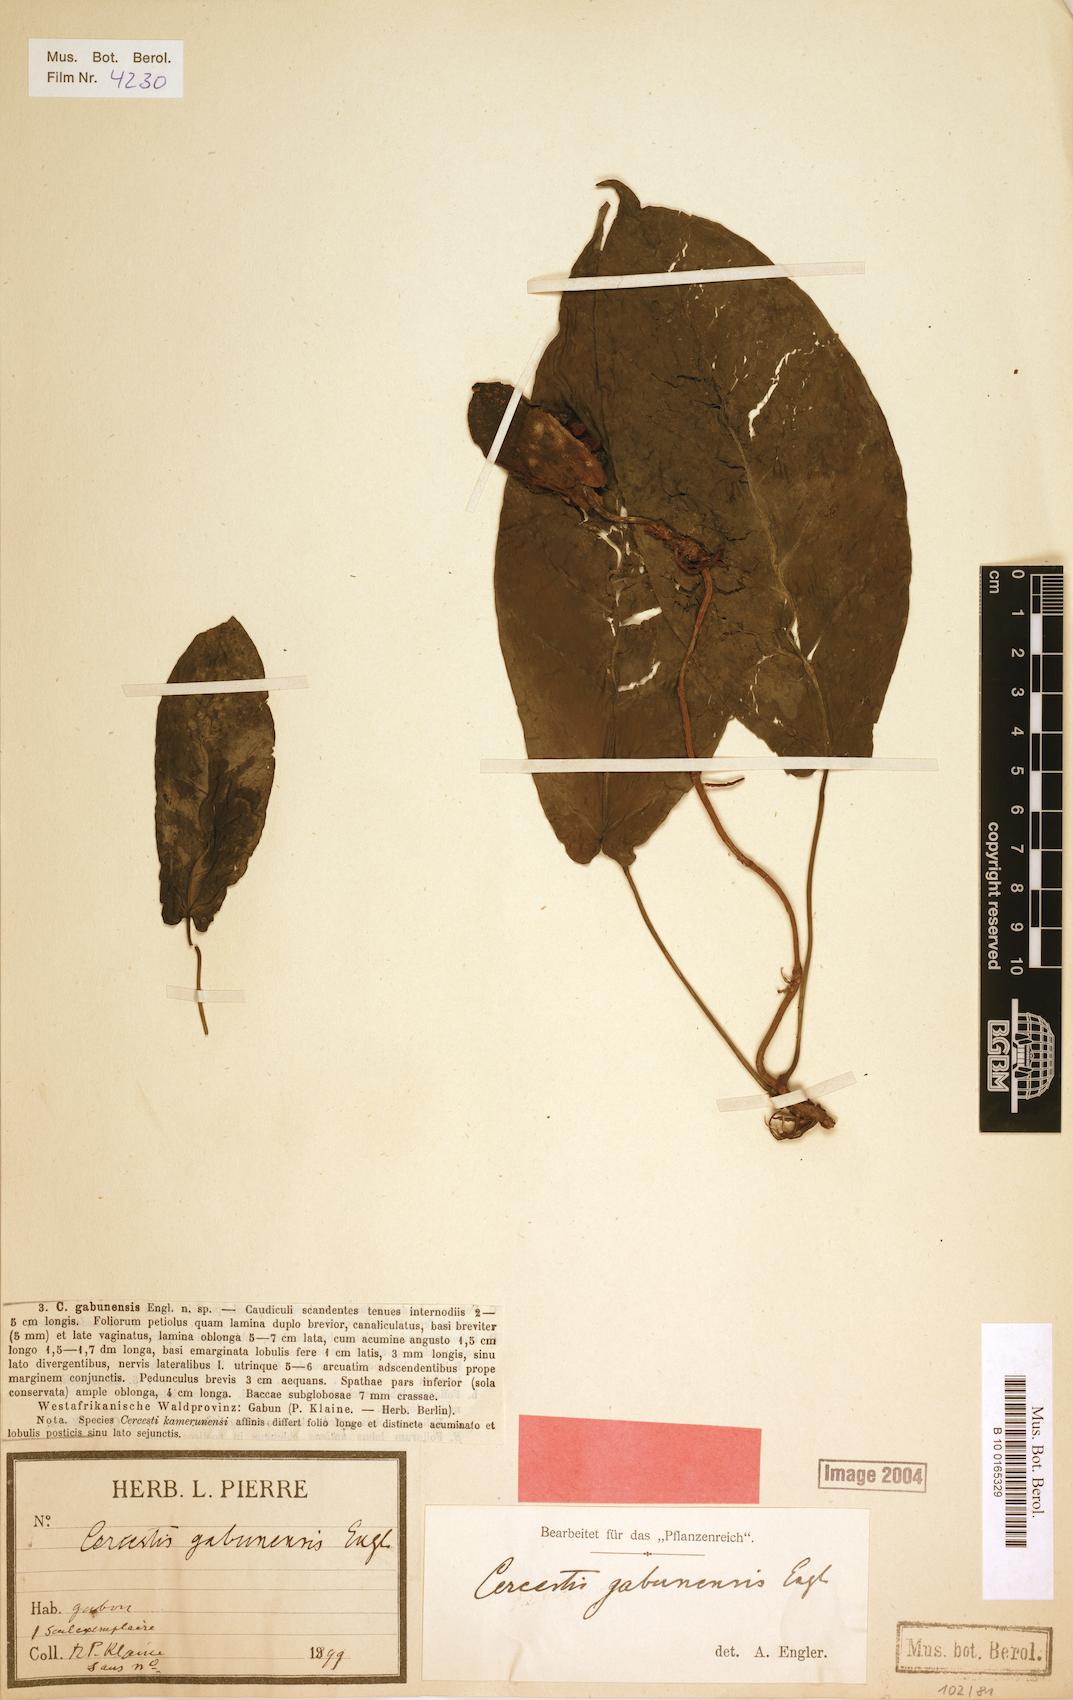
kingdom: Plantae
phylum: Tracheophyta
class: Liliopsida
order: Alismatales
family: Araceae
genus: Cercestis
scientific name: Cercestis kamerunianus
